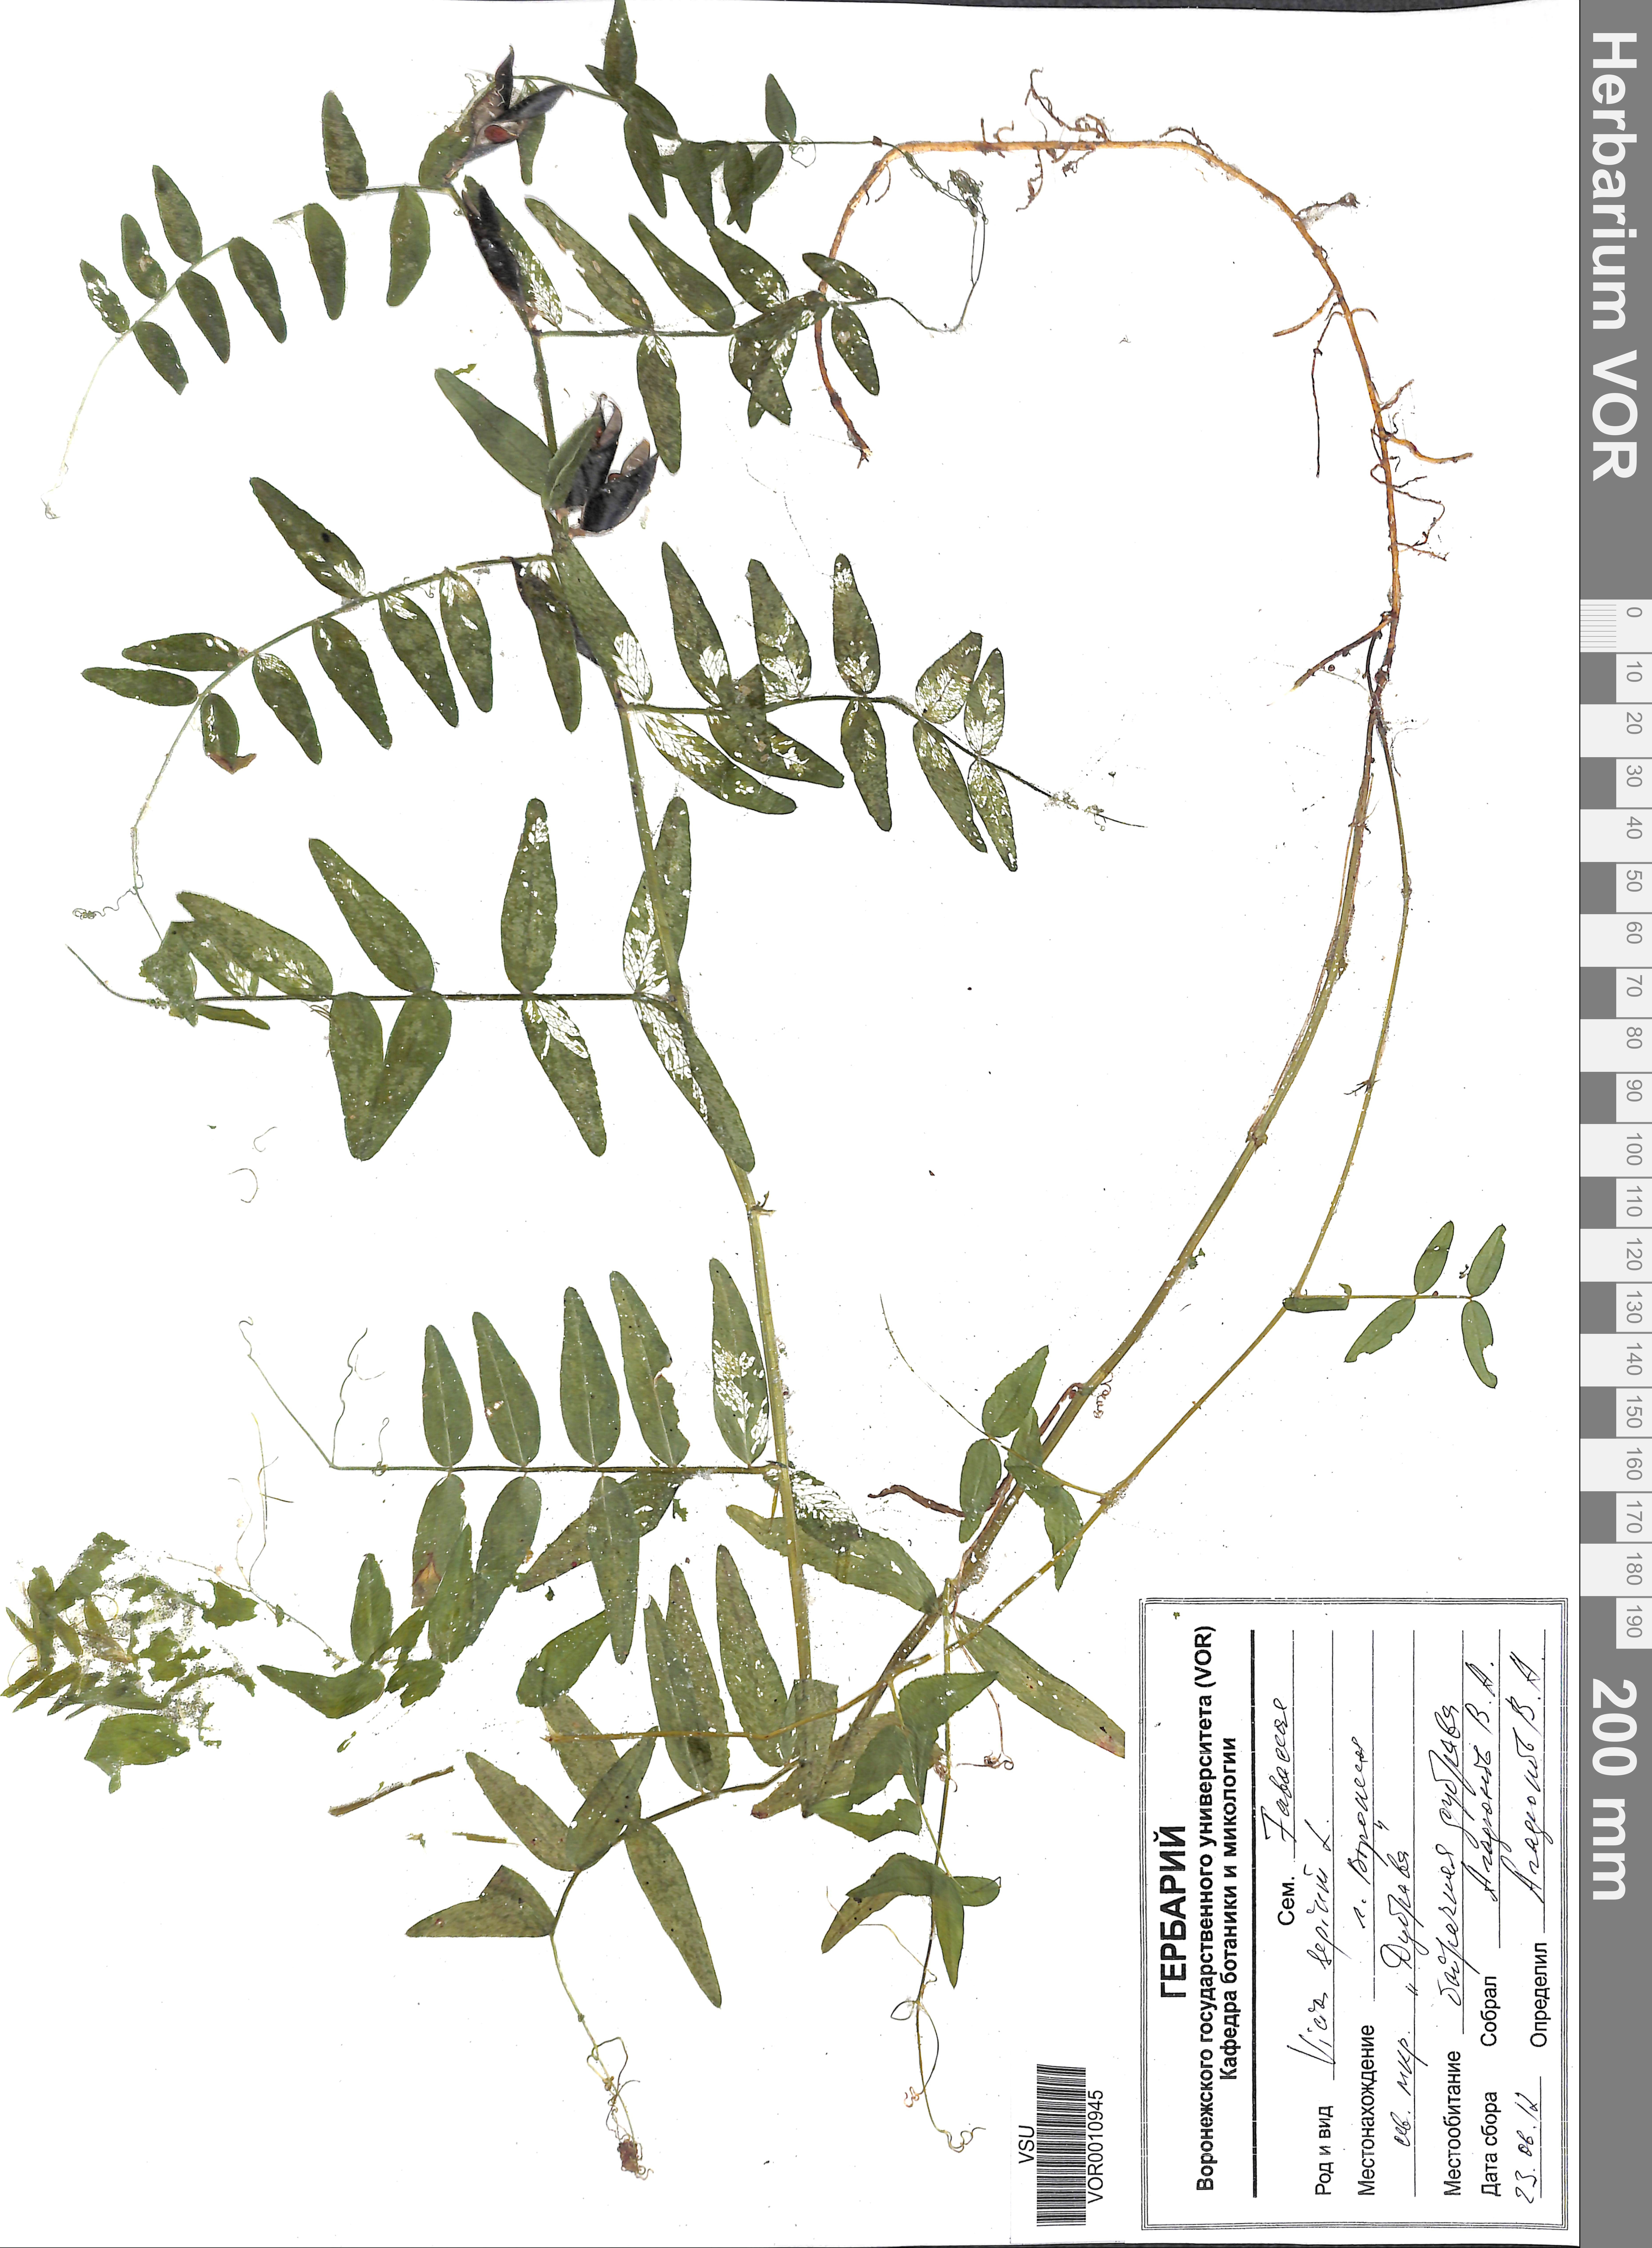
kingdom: Plantae
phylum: Tracheophyta
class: Magnoliopsida
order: Fabales
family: Fabaceae
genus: Vicia
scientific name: Vicia sepium
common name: Bush vetch
